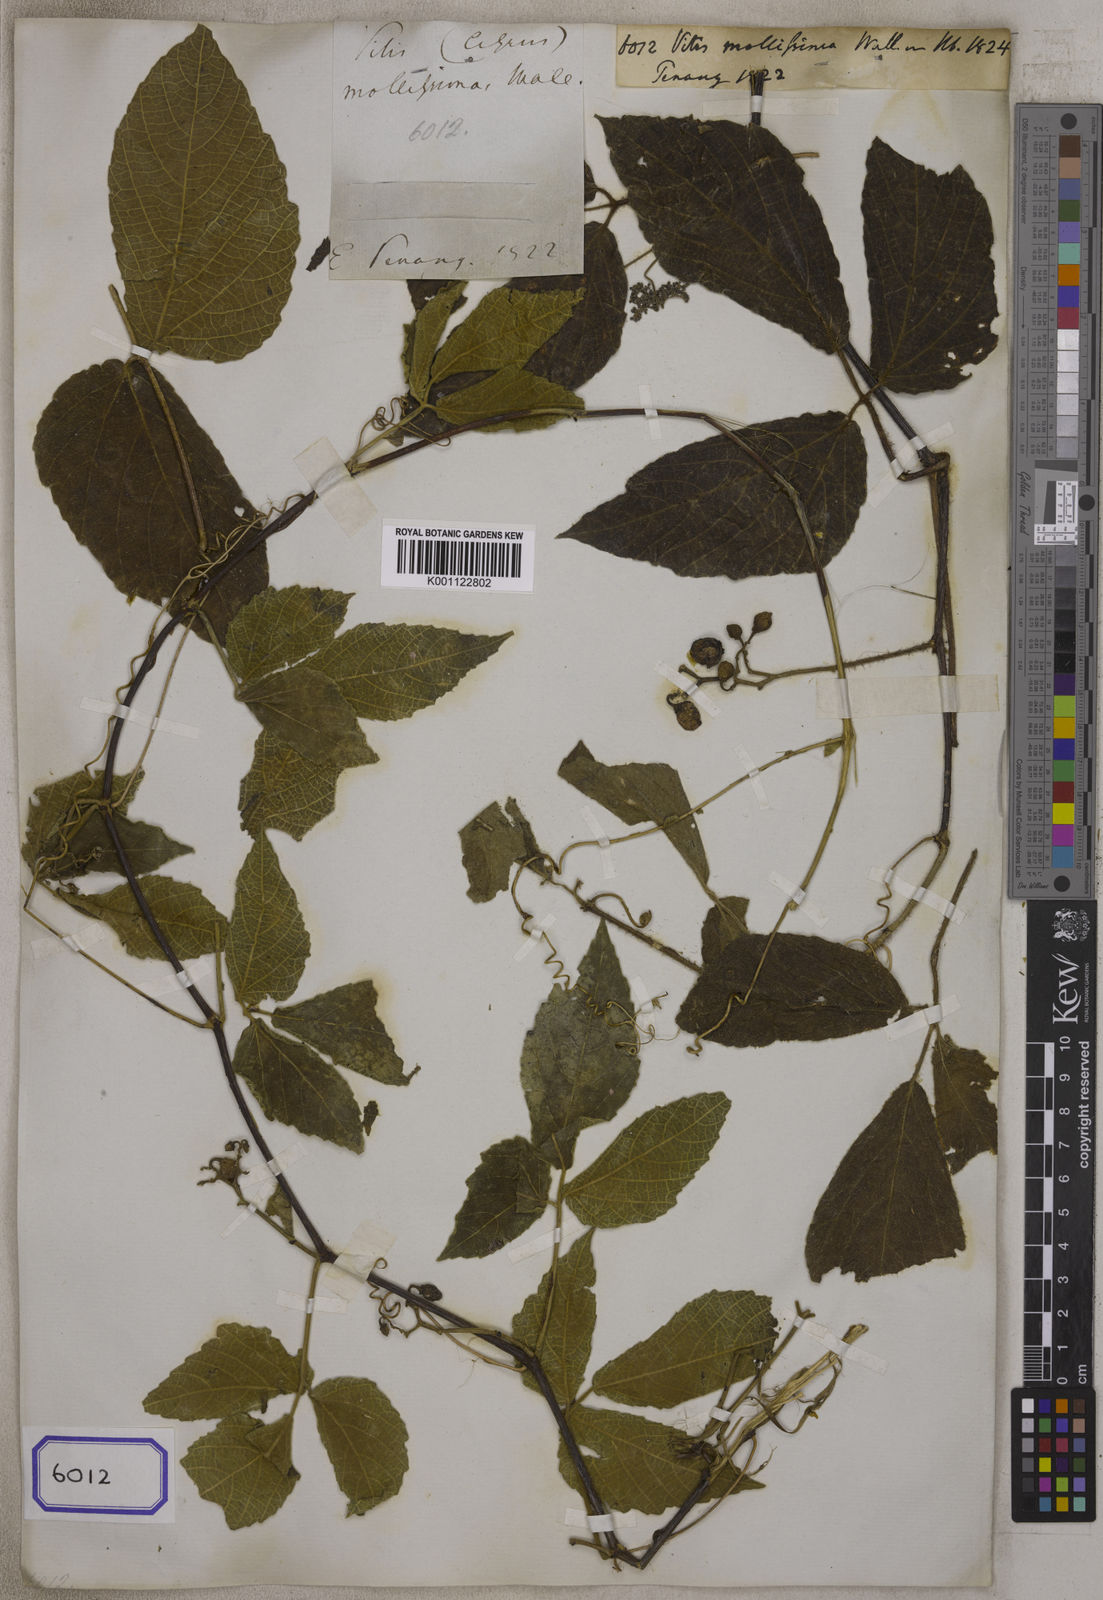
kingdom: Plantae
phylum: Tracheophyta
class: Magnoliopsida
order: Vitales
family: Vitaceae
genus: Cayratia
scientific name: Cayratia mollissima
